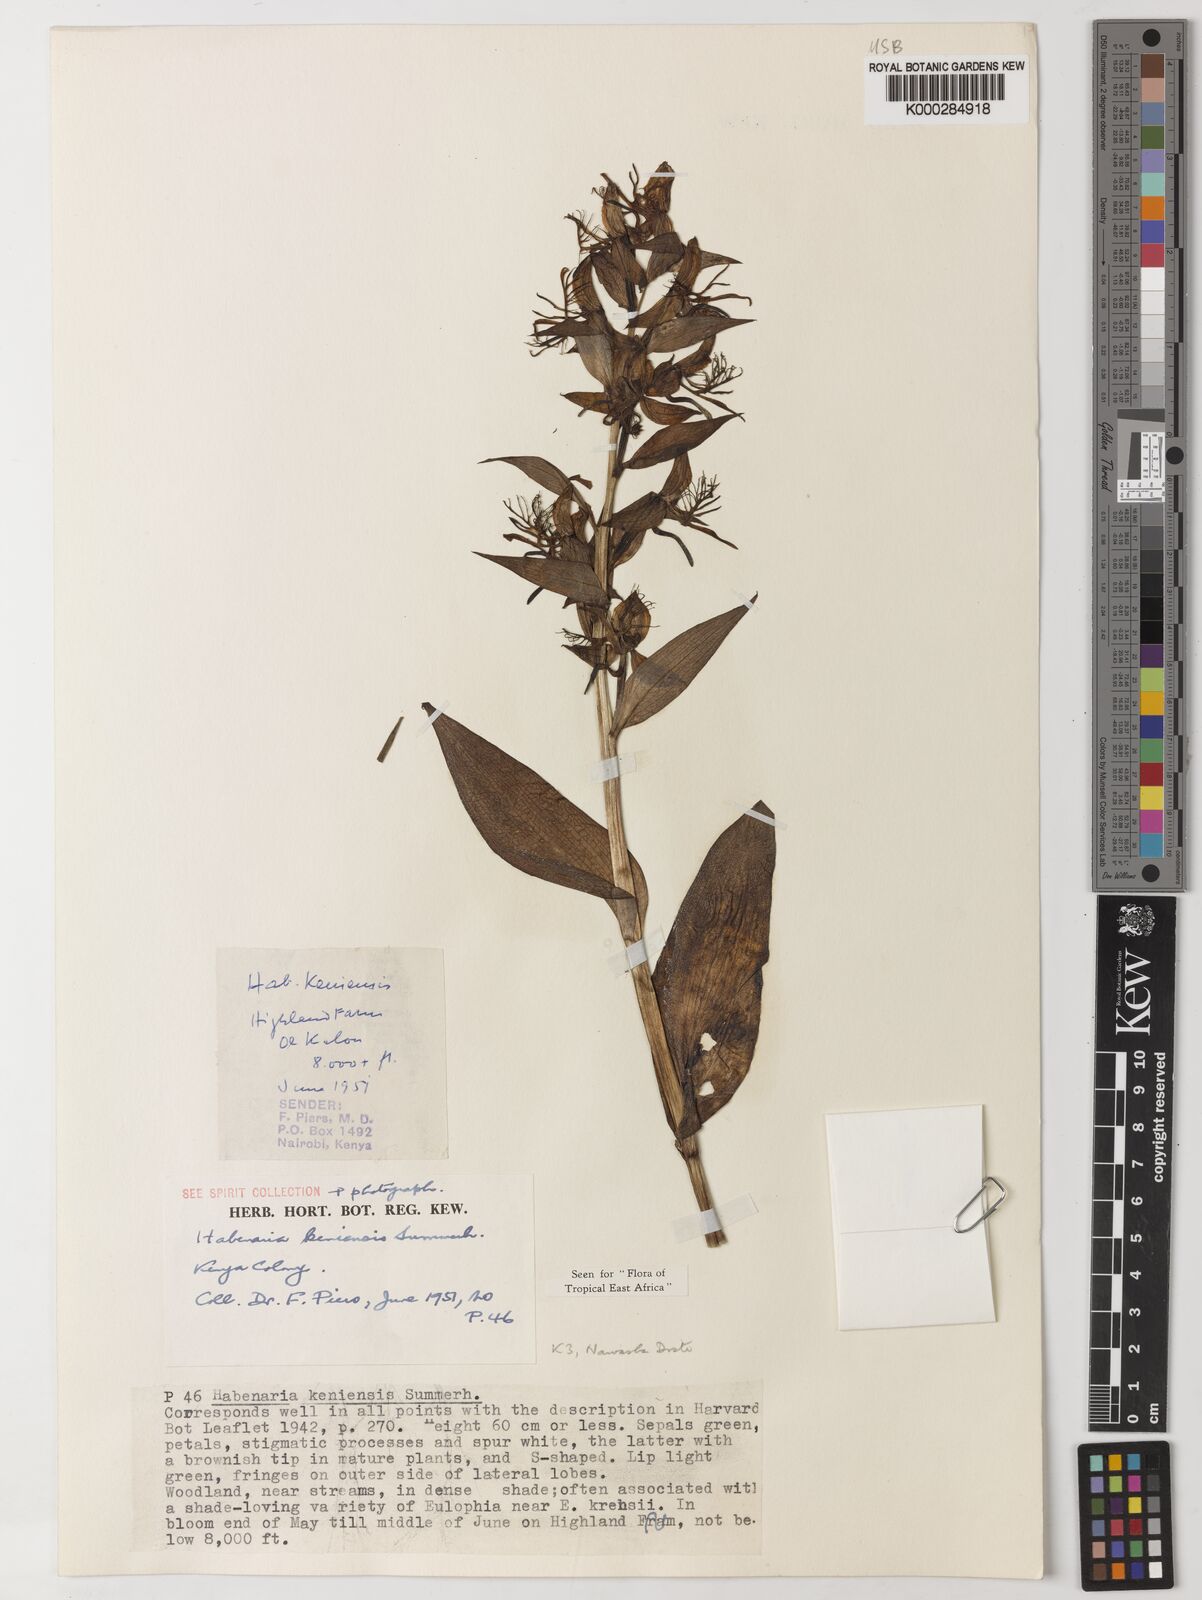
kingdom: Plantae
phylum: Tracheophyta
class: Liliopsida
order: Asparagales
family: Orchidaceae
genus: Habenaria
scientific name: Habenaria keniensis
